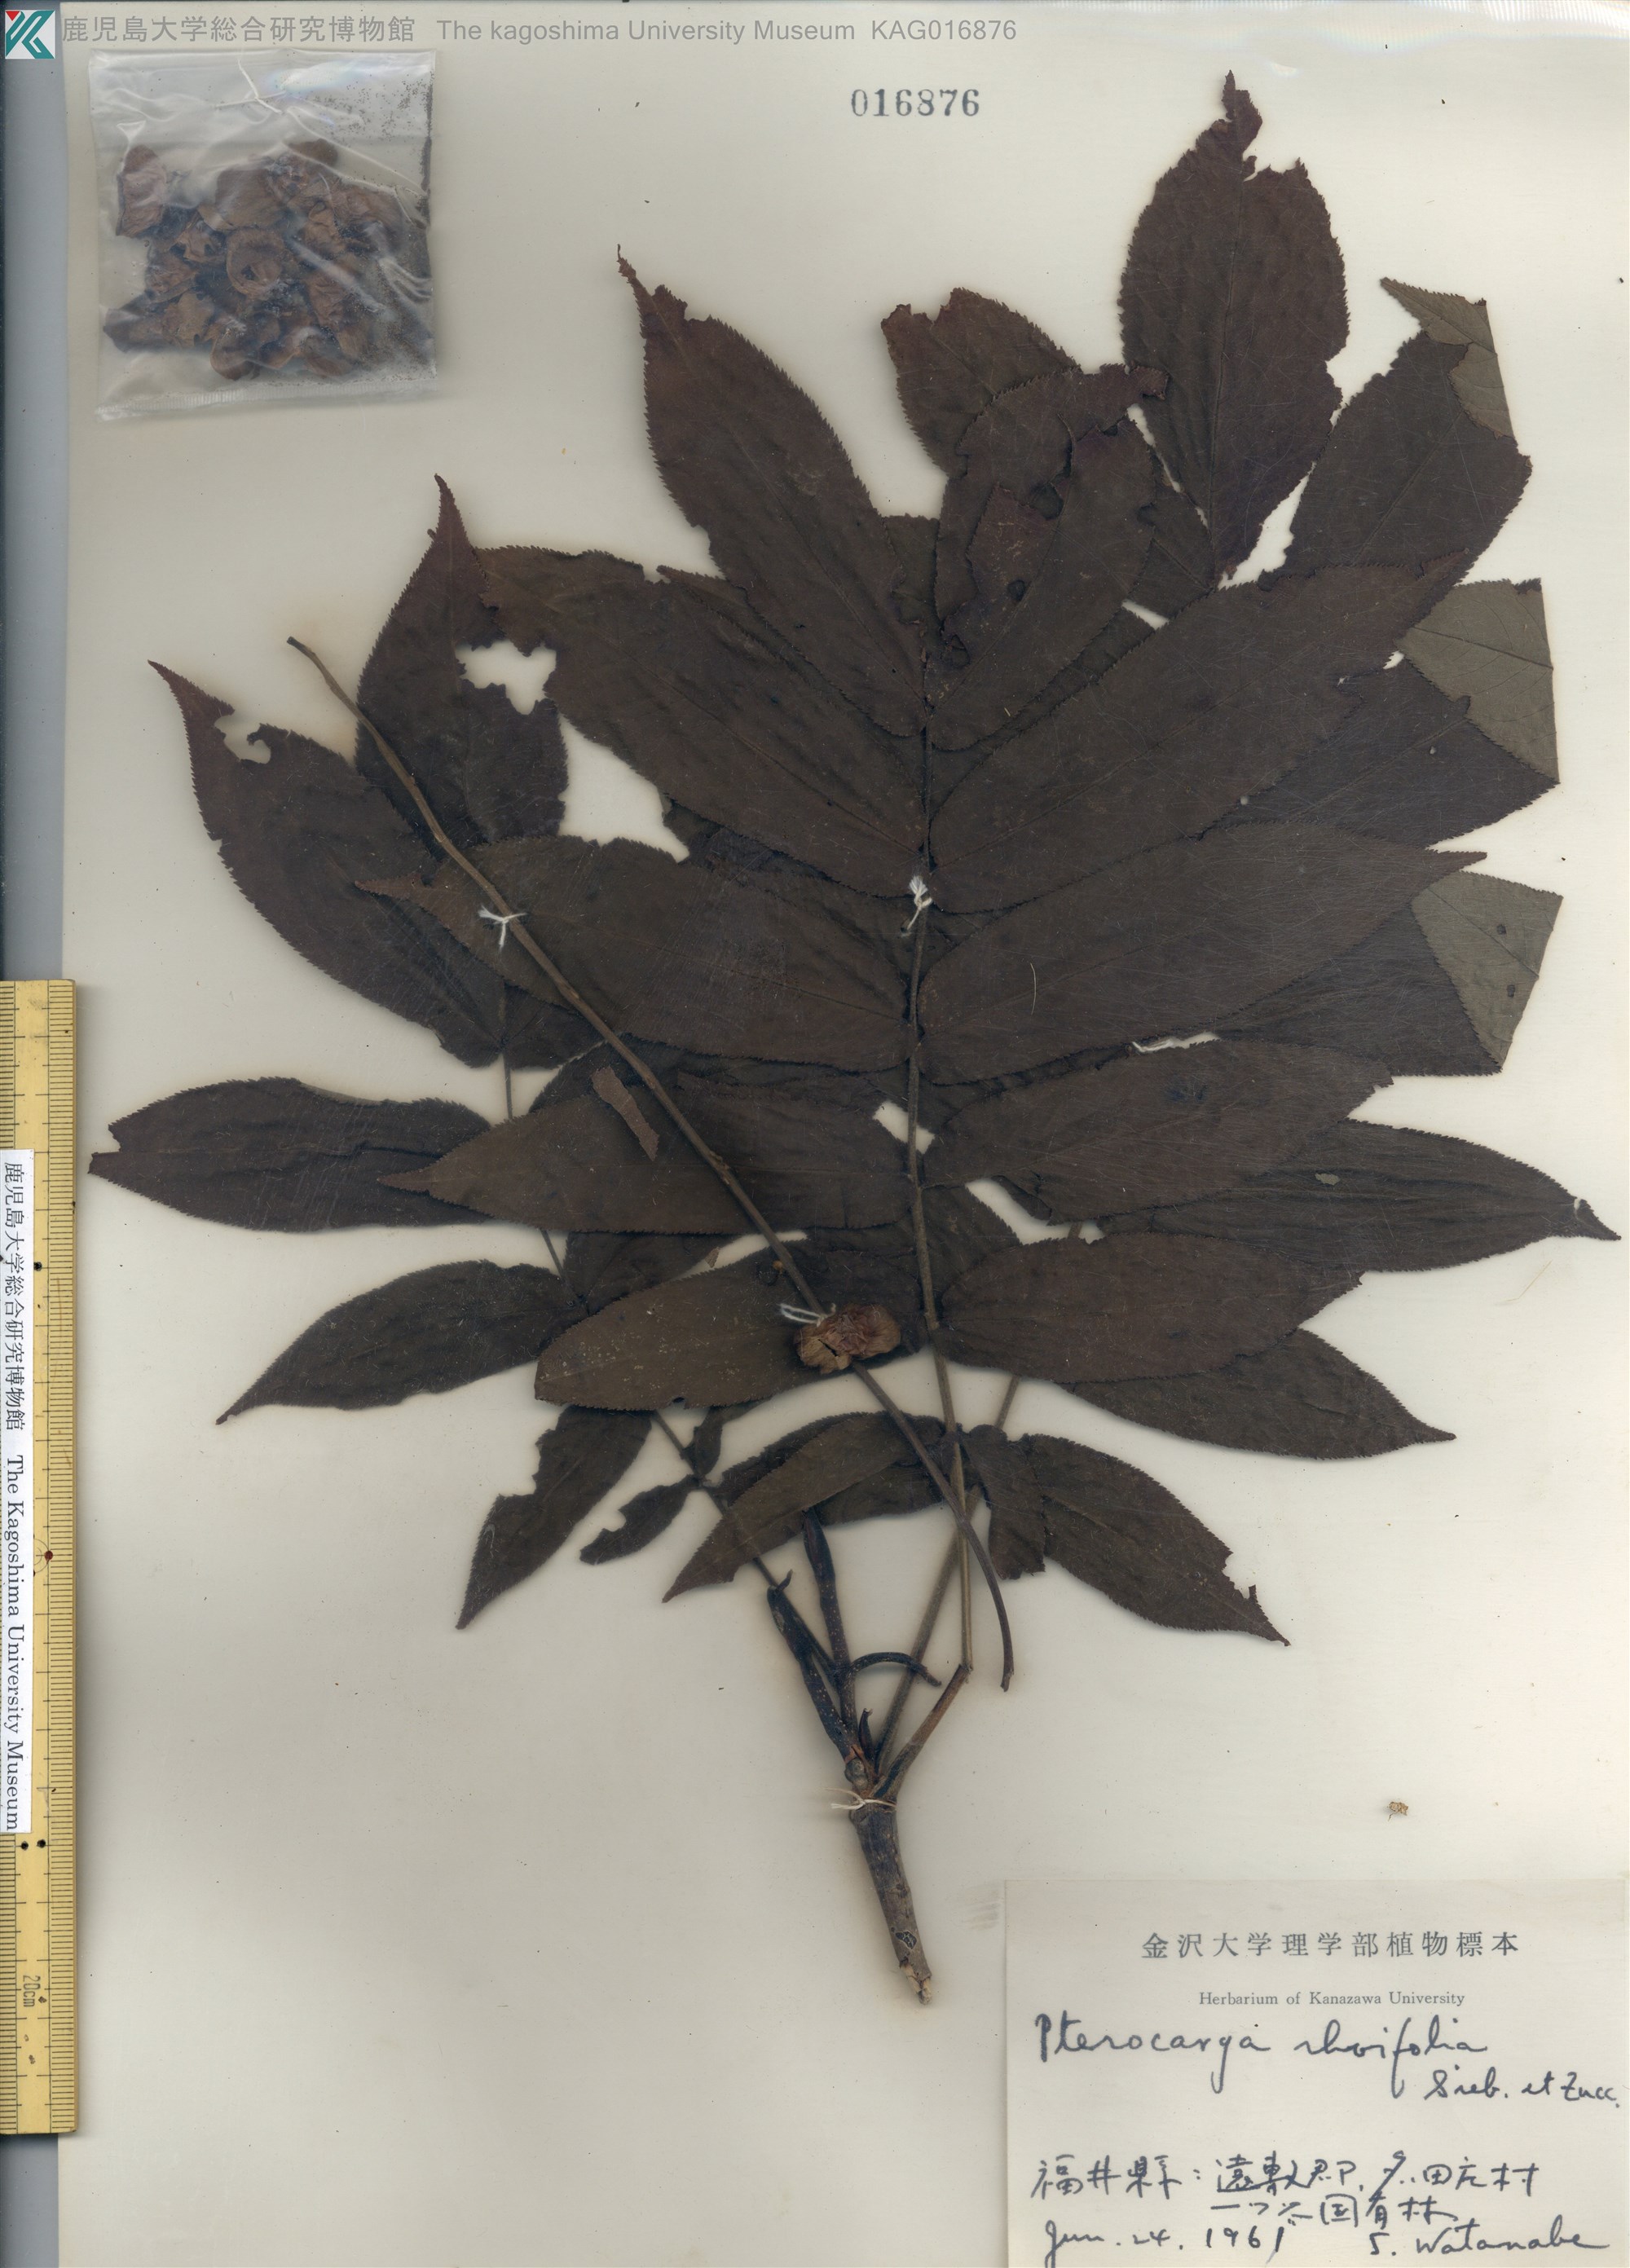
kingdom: Plantae
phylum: Tracheophyta
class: Magnoliopsida
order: Fagales
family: Juglandaceae
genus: Pterocarya
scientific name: Pterocarya rhoifolia
